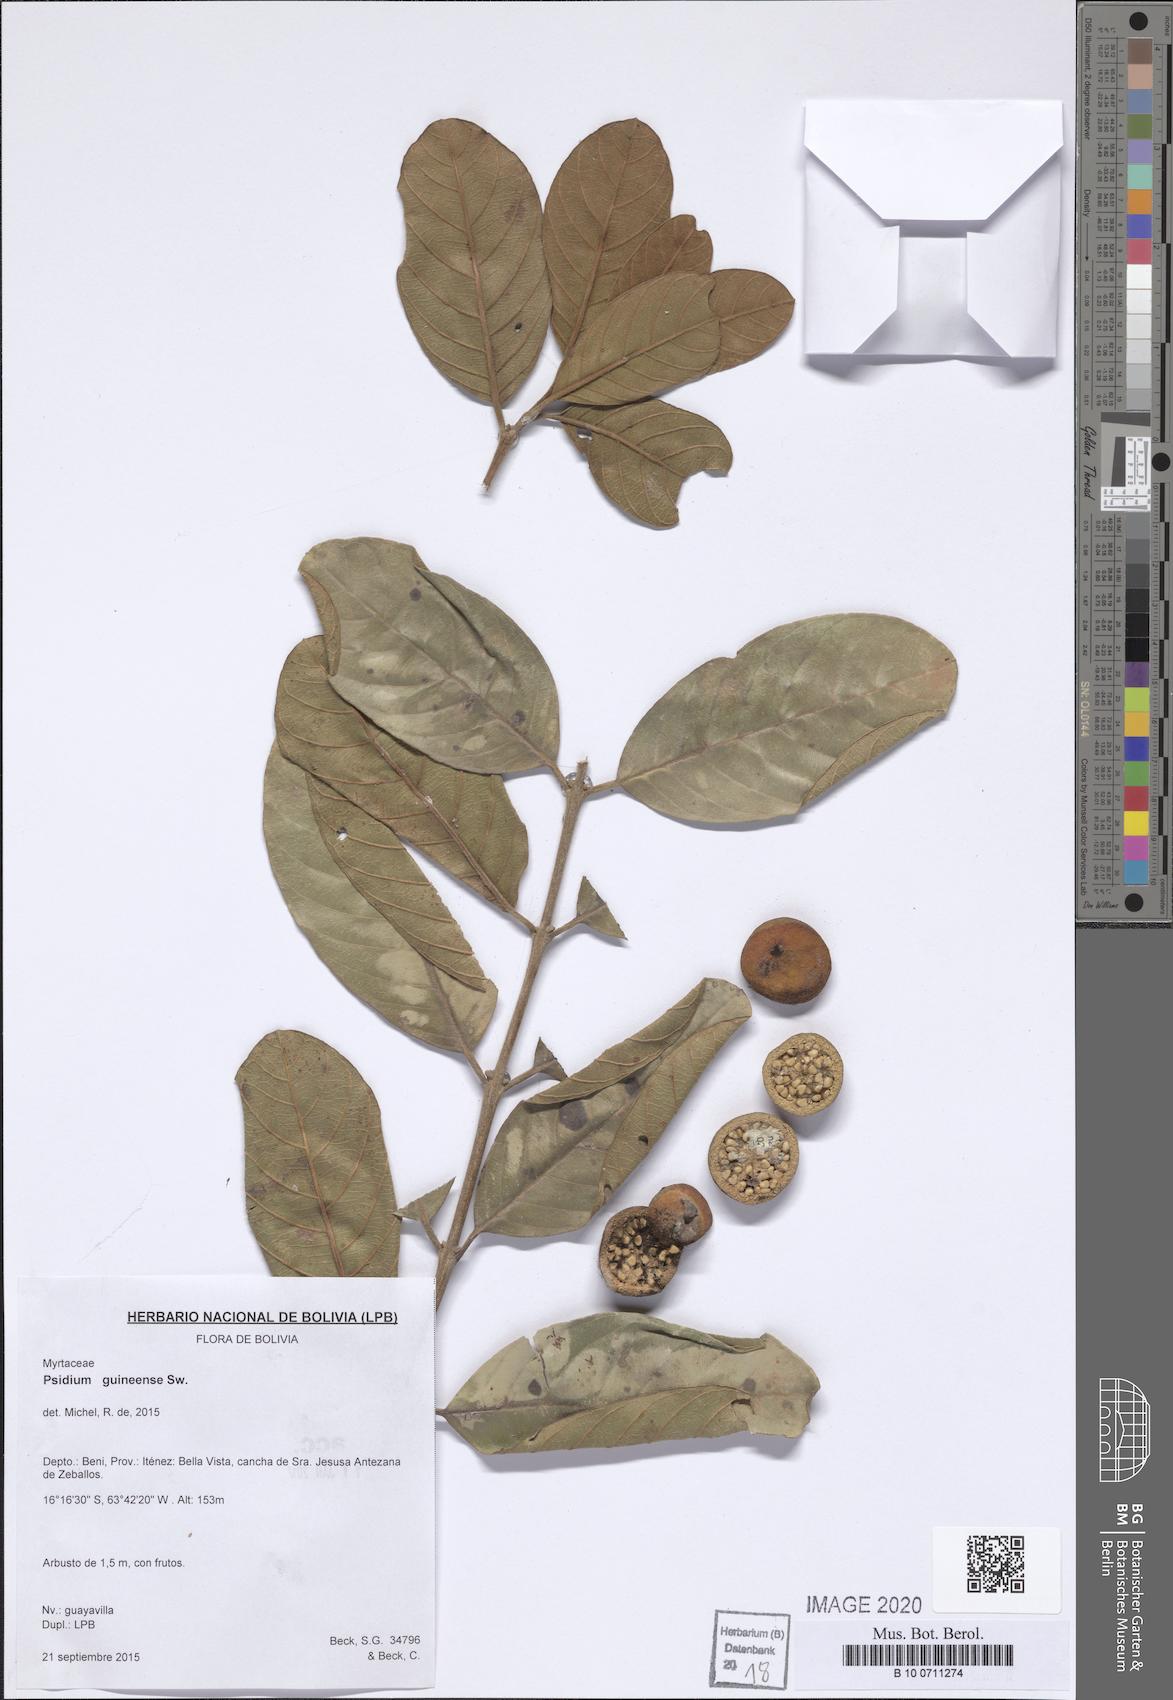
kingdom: Plantae
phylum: Tracheophyta
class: Magnoliopsida
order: Myrtales
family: Myrtaceae
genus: Psidium
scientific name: Psidium guineense
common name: Brazilian guava
